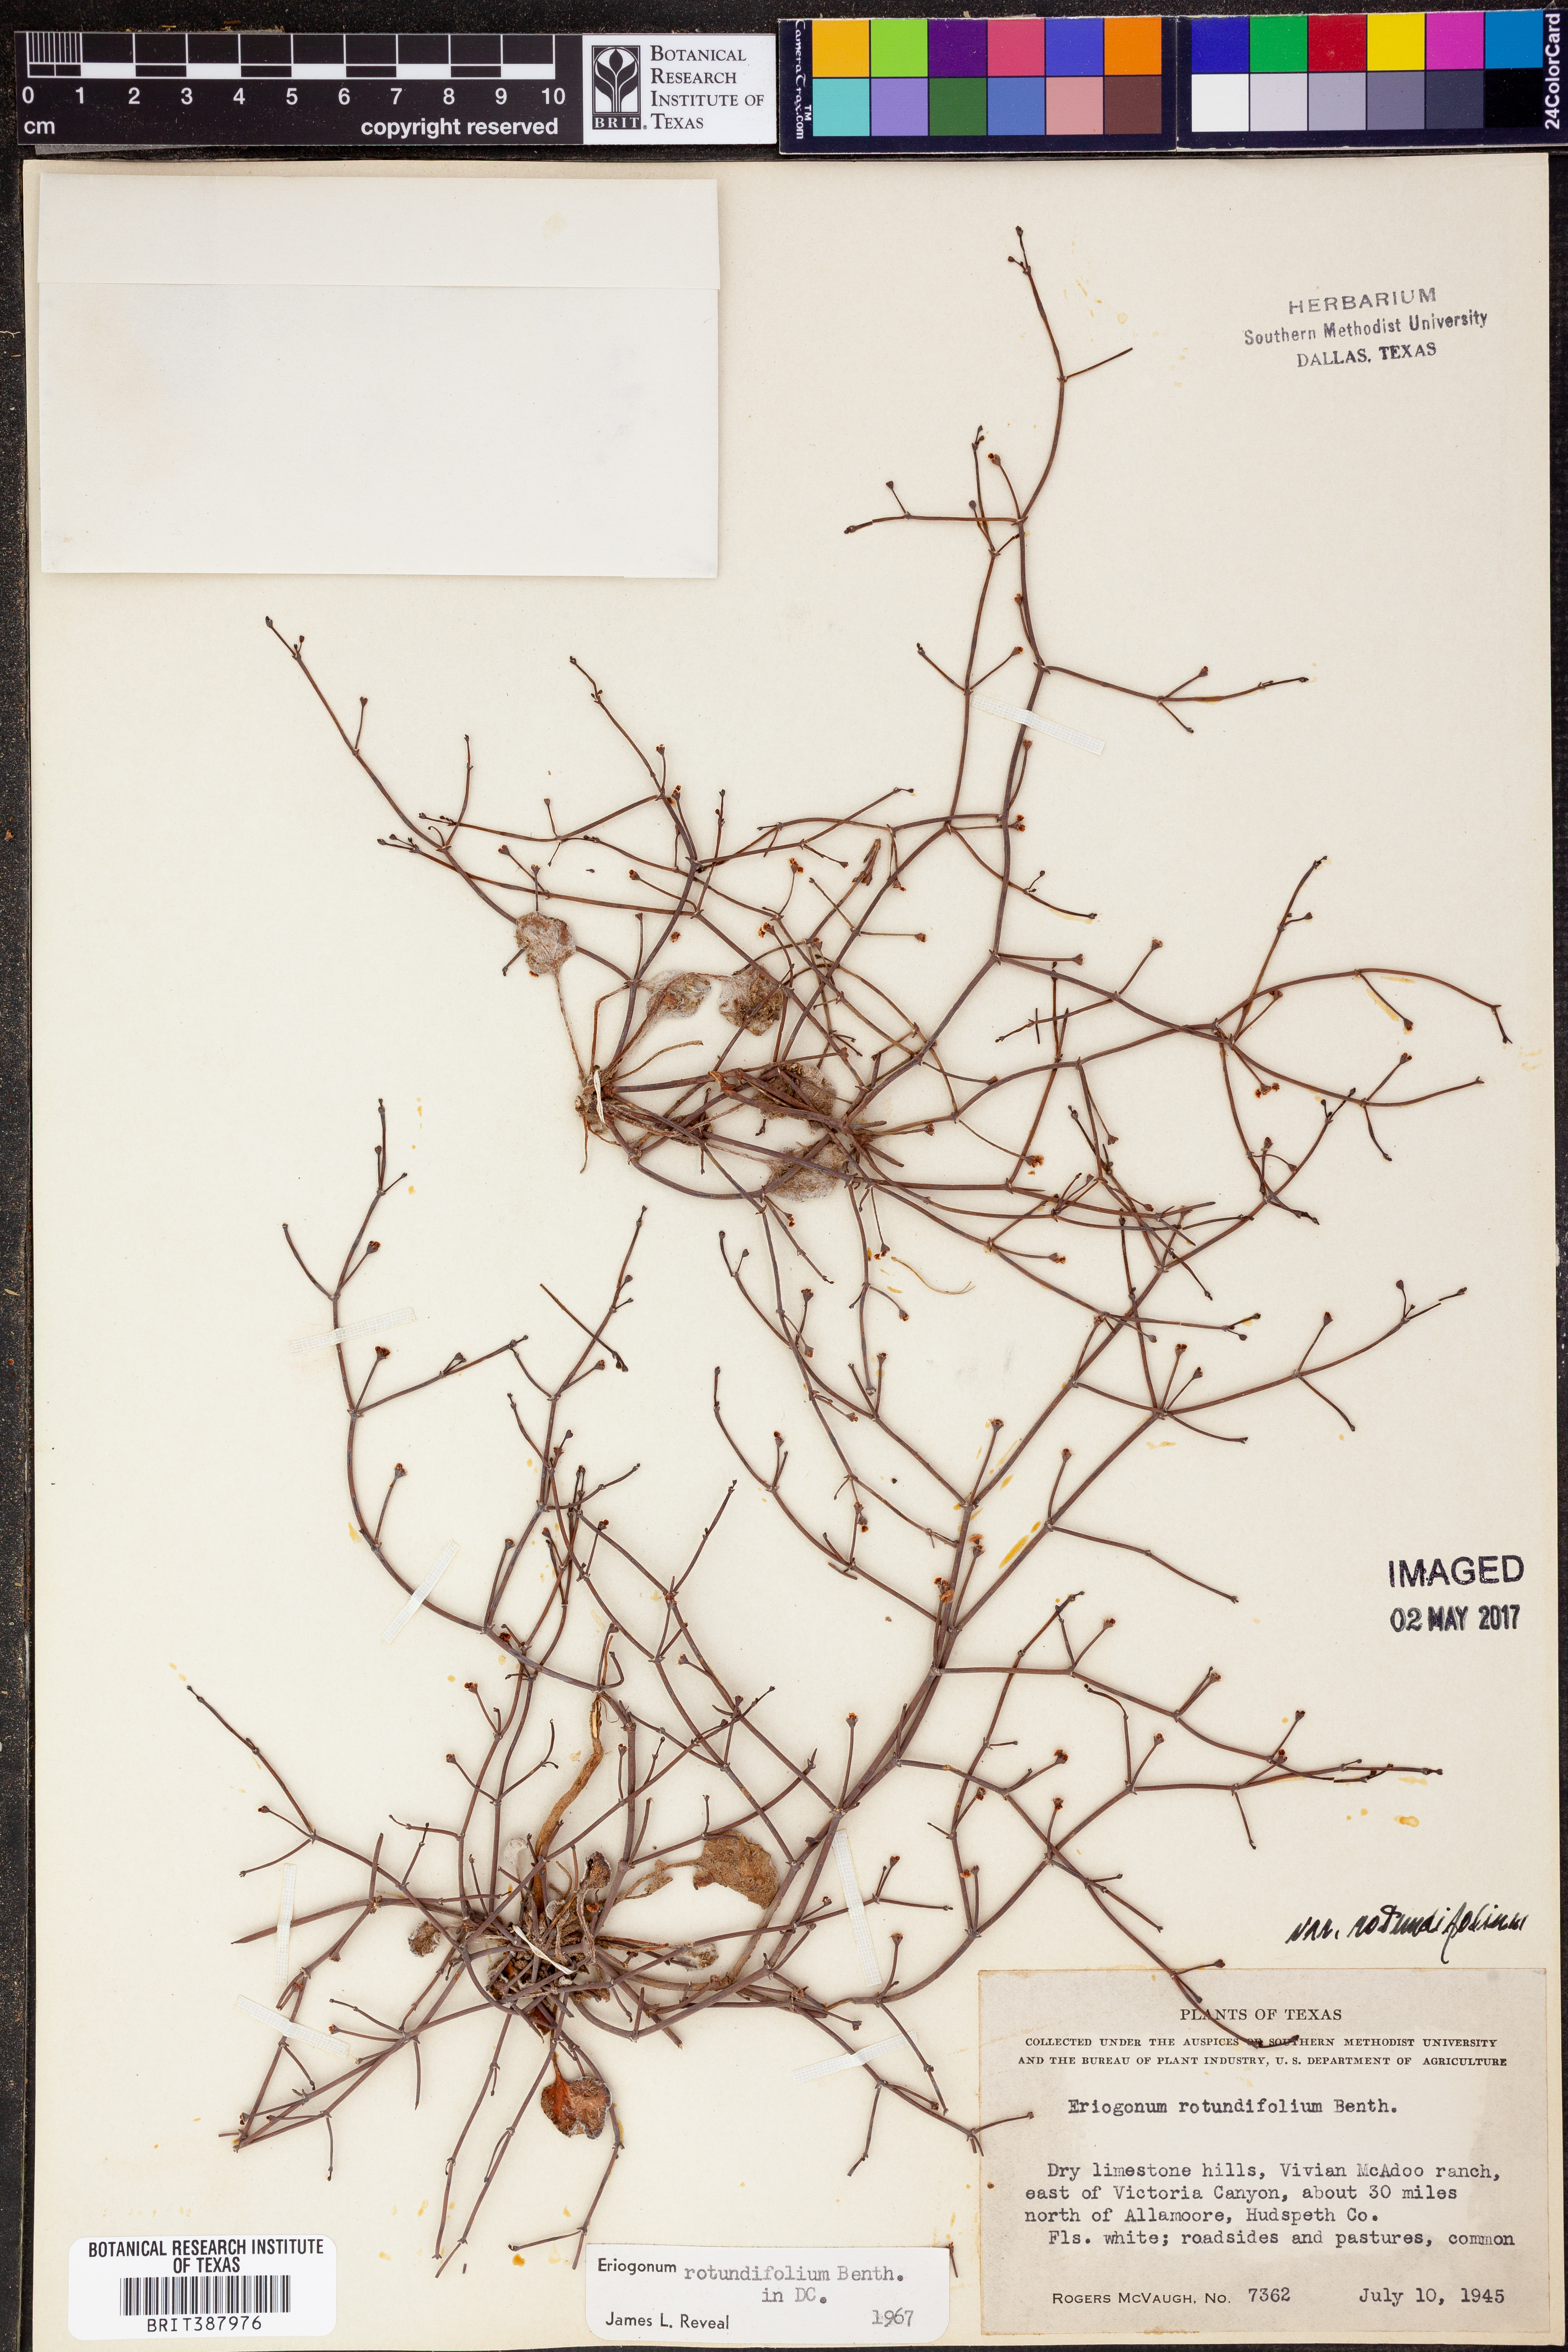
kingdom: Plantae
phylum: Tracheophyta
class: Magnoliopsida
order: Caryophyllales
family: Polygonaceae
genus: Eriogonum
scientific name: Eriogonum rotundifolium
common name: Round-leaf wild buckwheat
